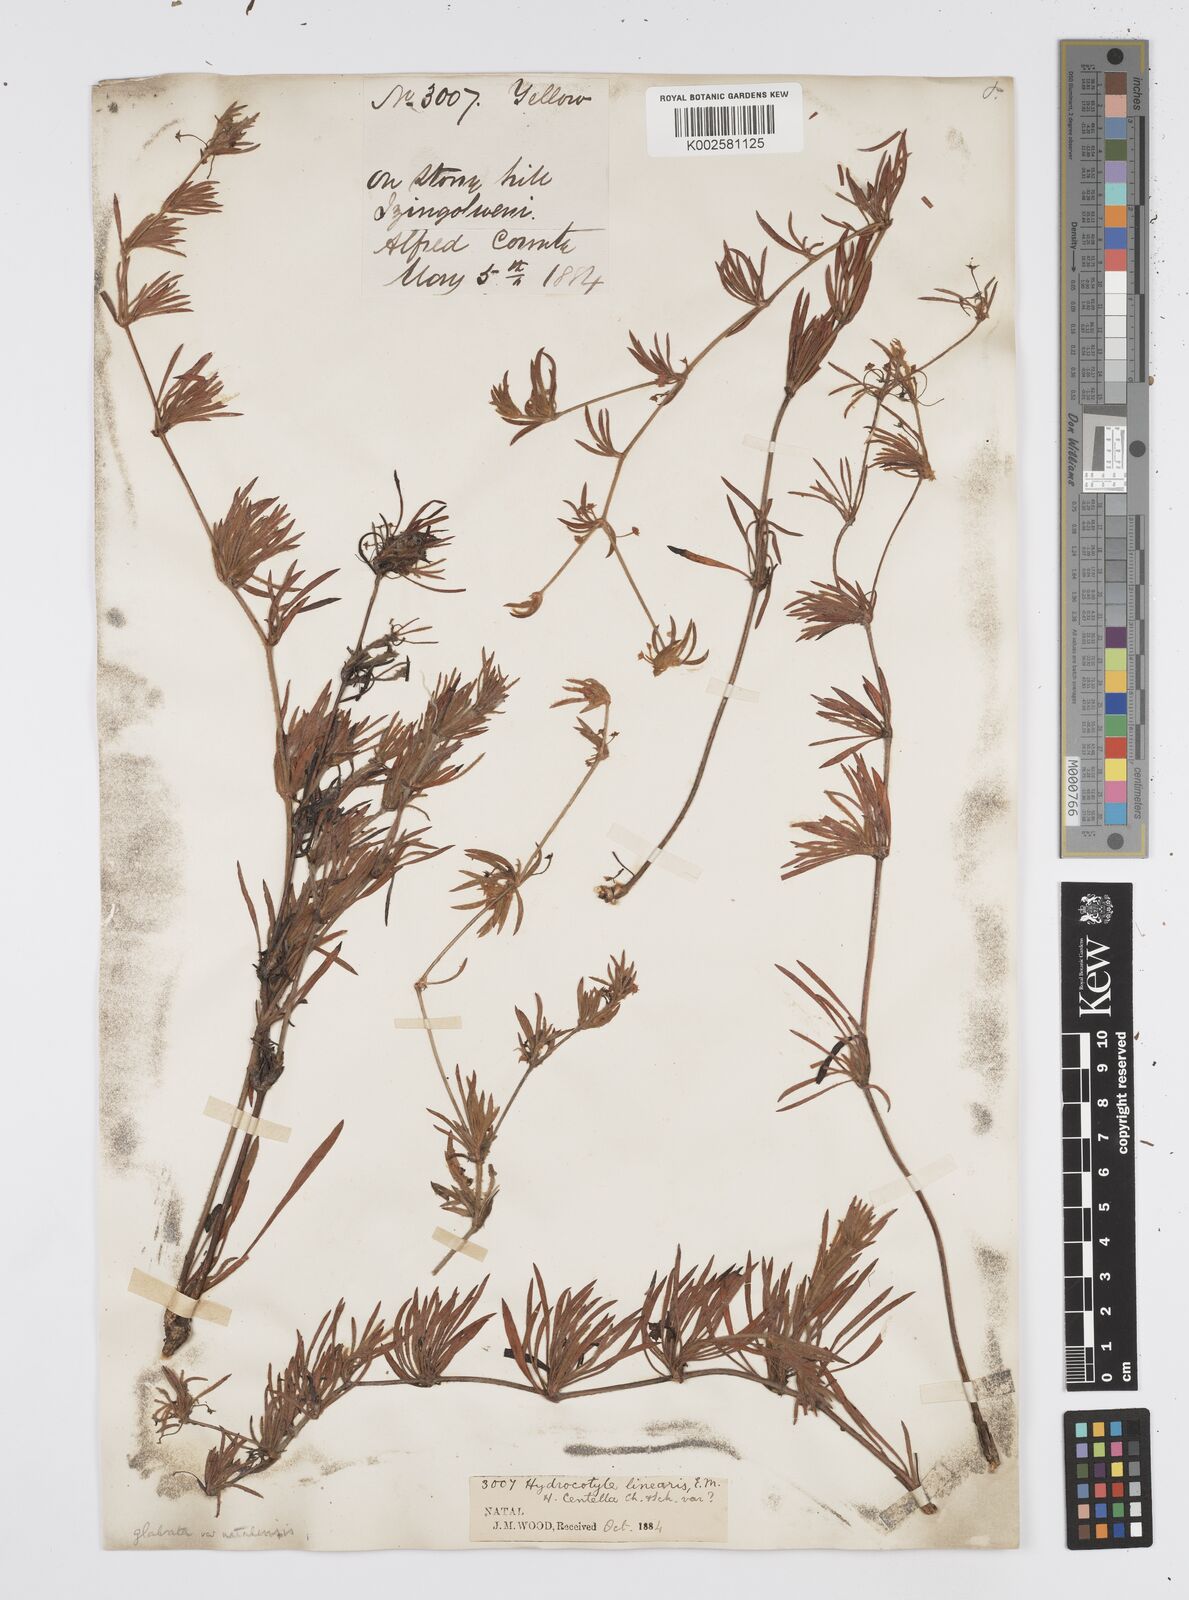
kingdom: Plantae
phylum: Tracheophyta
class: Magnoliopsida
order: Apiales
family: Apiaceae
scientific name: Apiaceae
